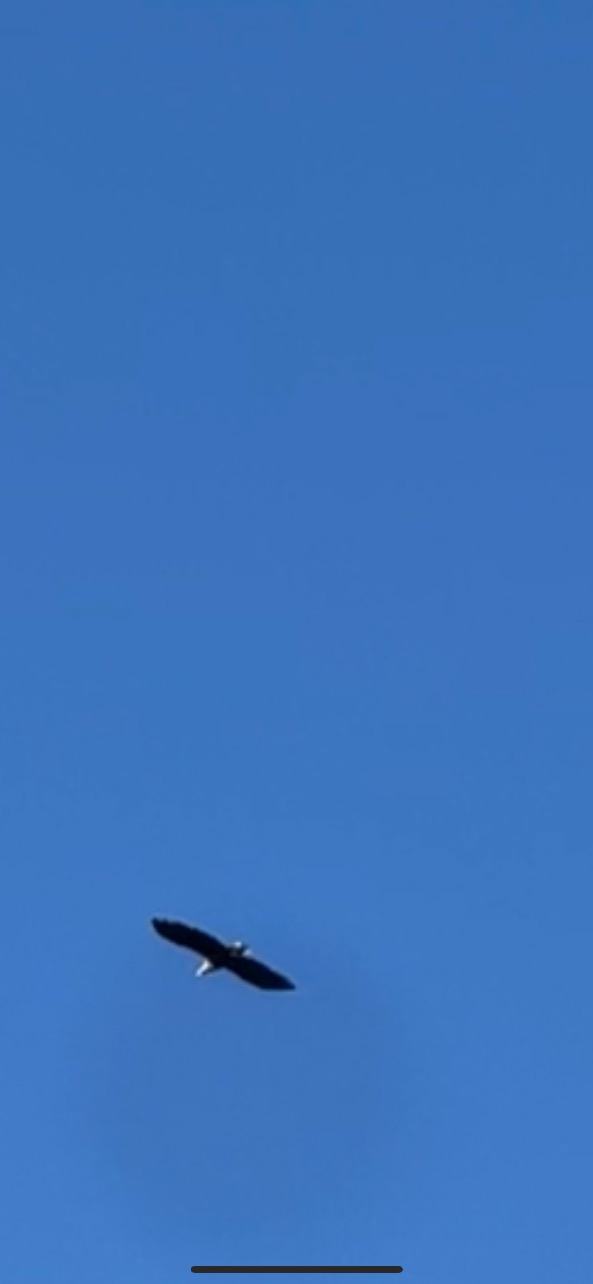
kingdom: Animalia
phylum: Chordata
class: Aves
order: Accipitriformes
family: Accipitridae
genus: Haliaeetus
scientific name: Haliaeetus albicilla
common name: Havørn
